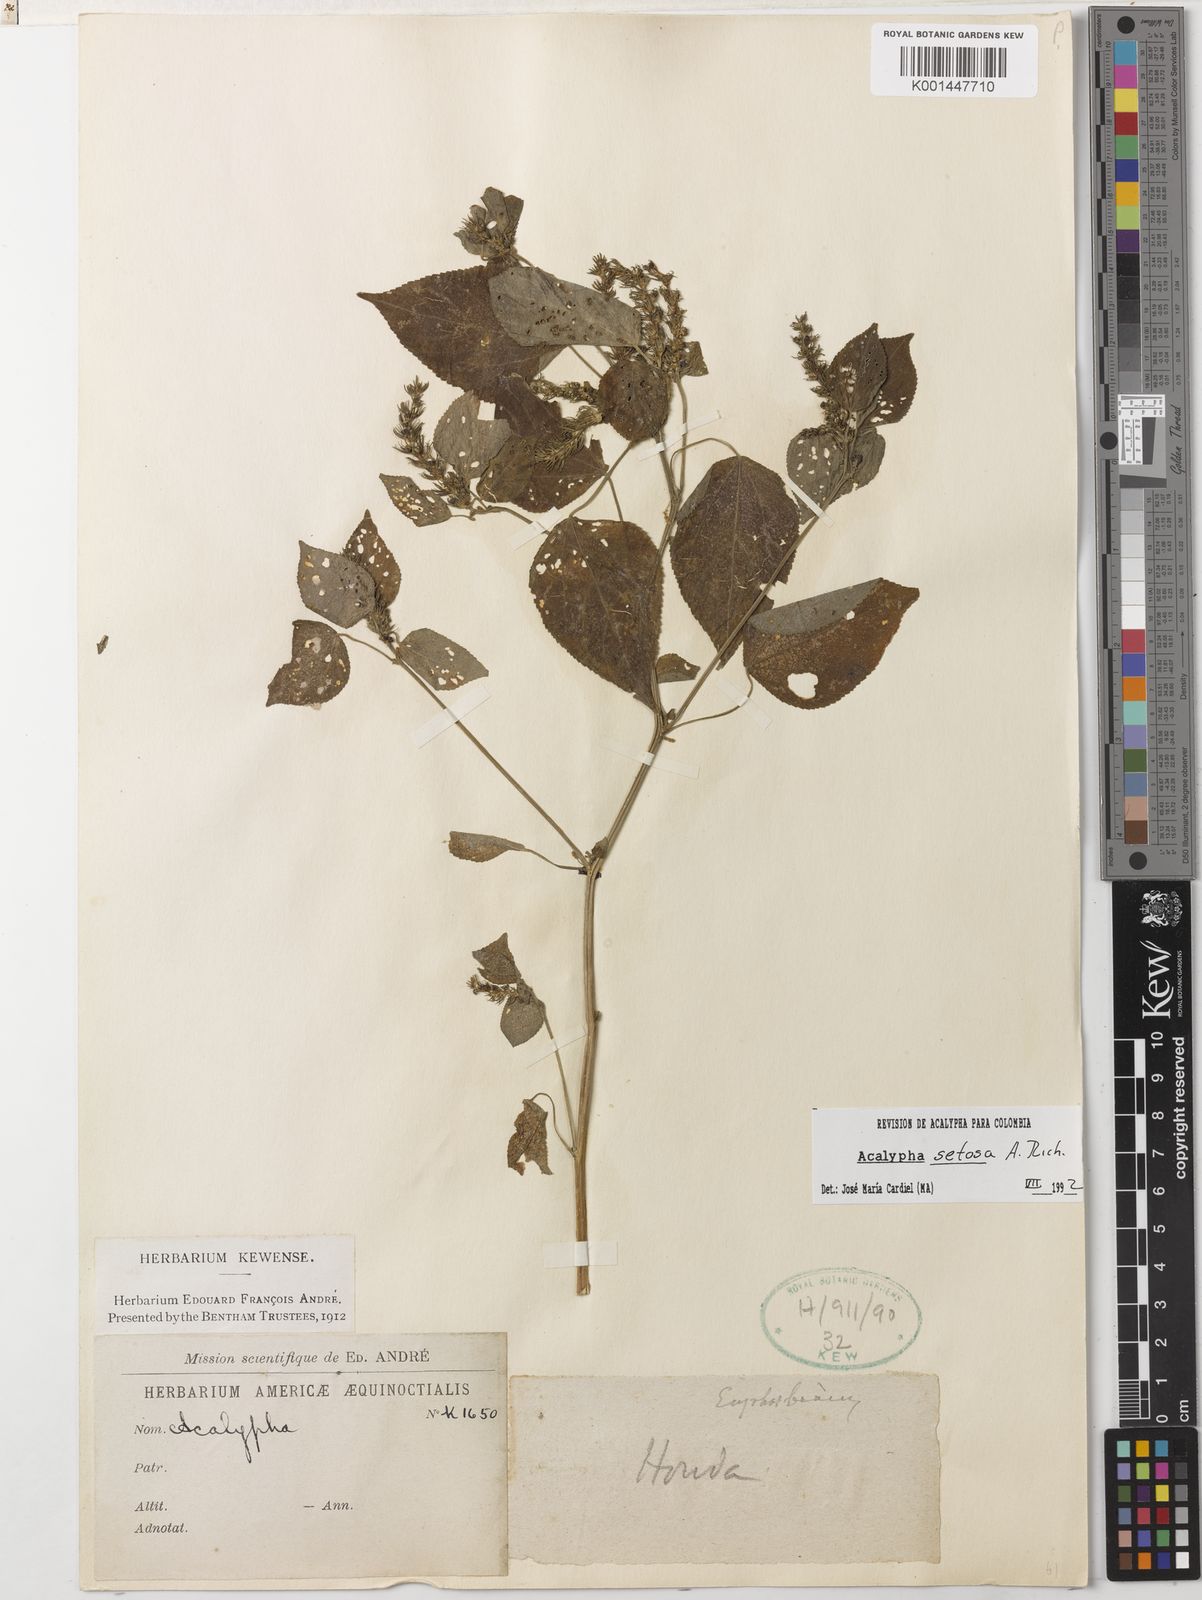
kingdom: Plantae
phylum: Tracheophyta
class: Magnoliopsida
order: Malpighiales
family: Euphorbiaceae
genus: Acalypha
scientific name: Acalypha setosa
